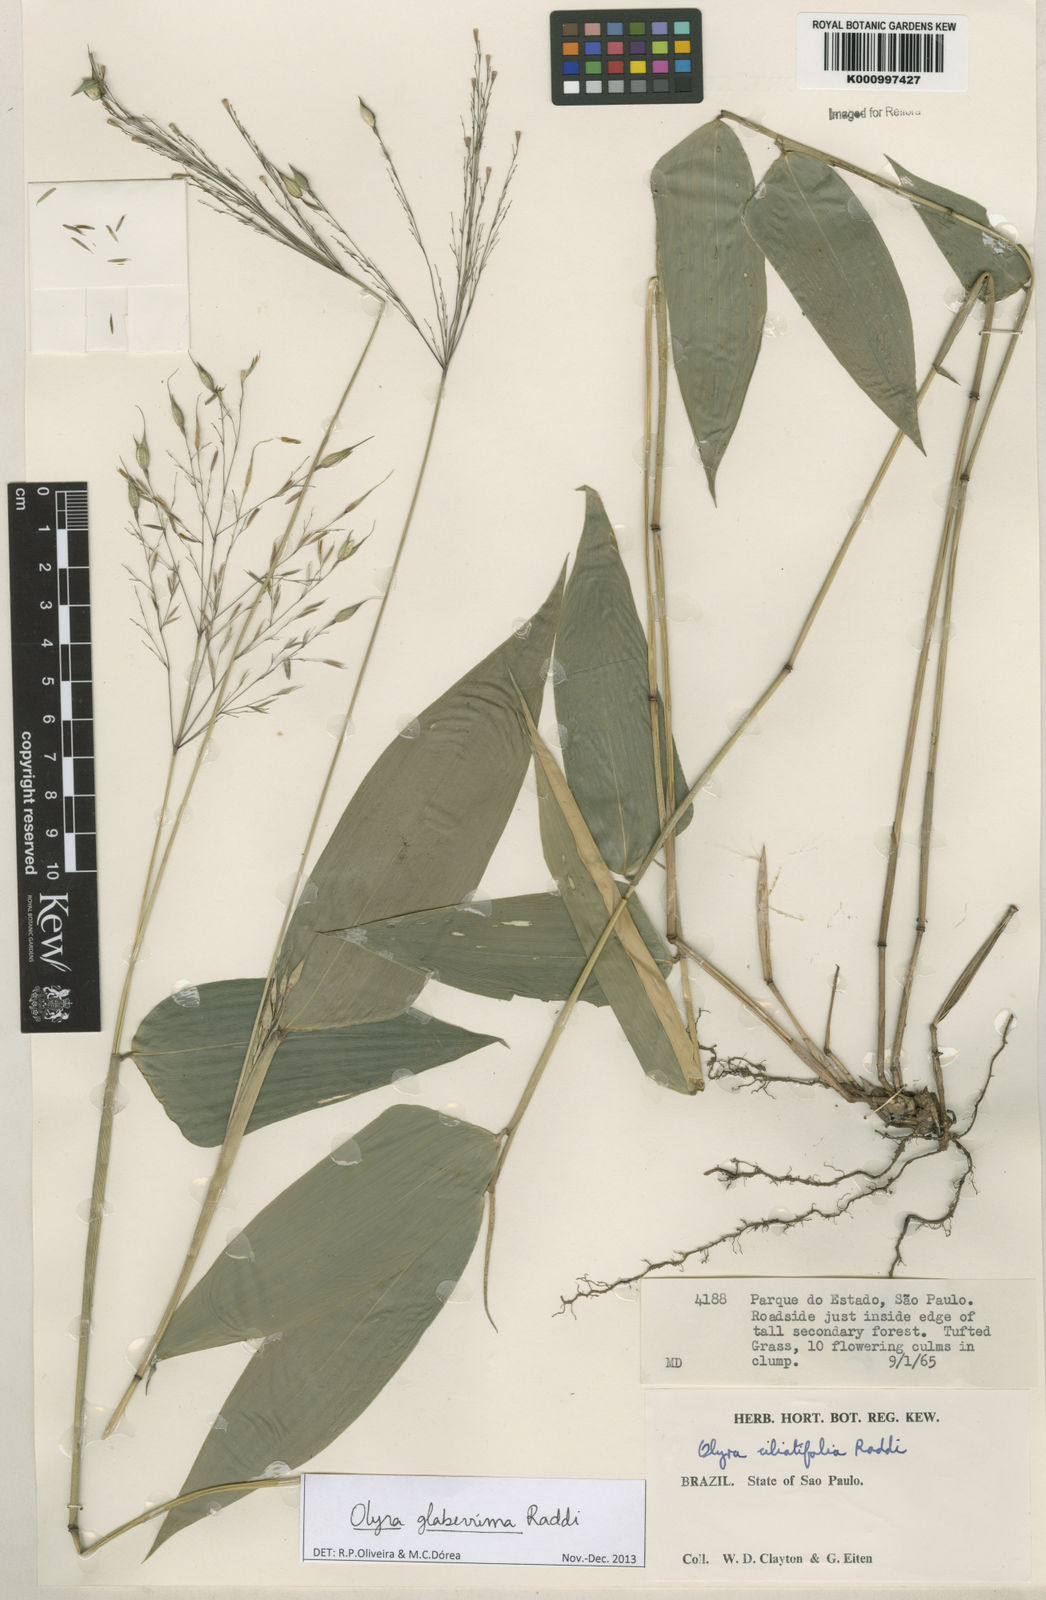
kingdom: Plantae
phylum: Tracheophyta
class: Liliopsida
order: Poales
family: Poaceae
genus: Olyra
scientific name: Olyra glaberrima
